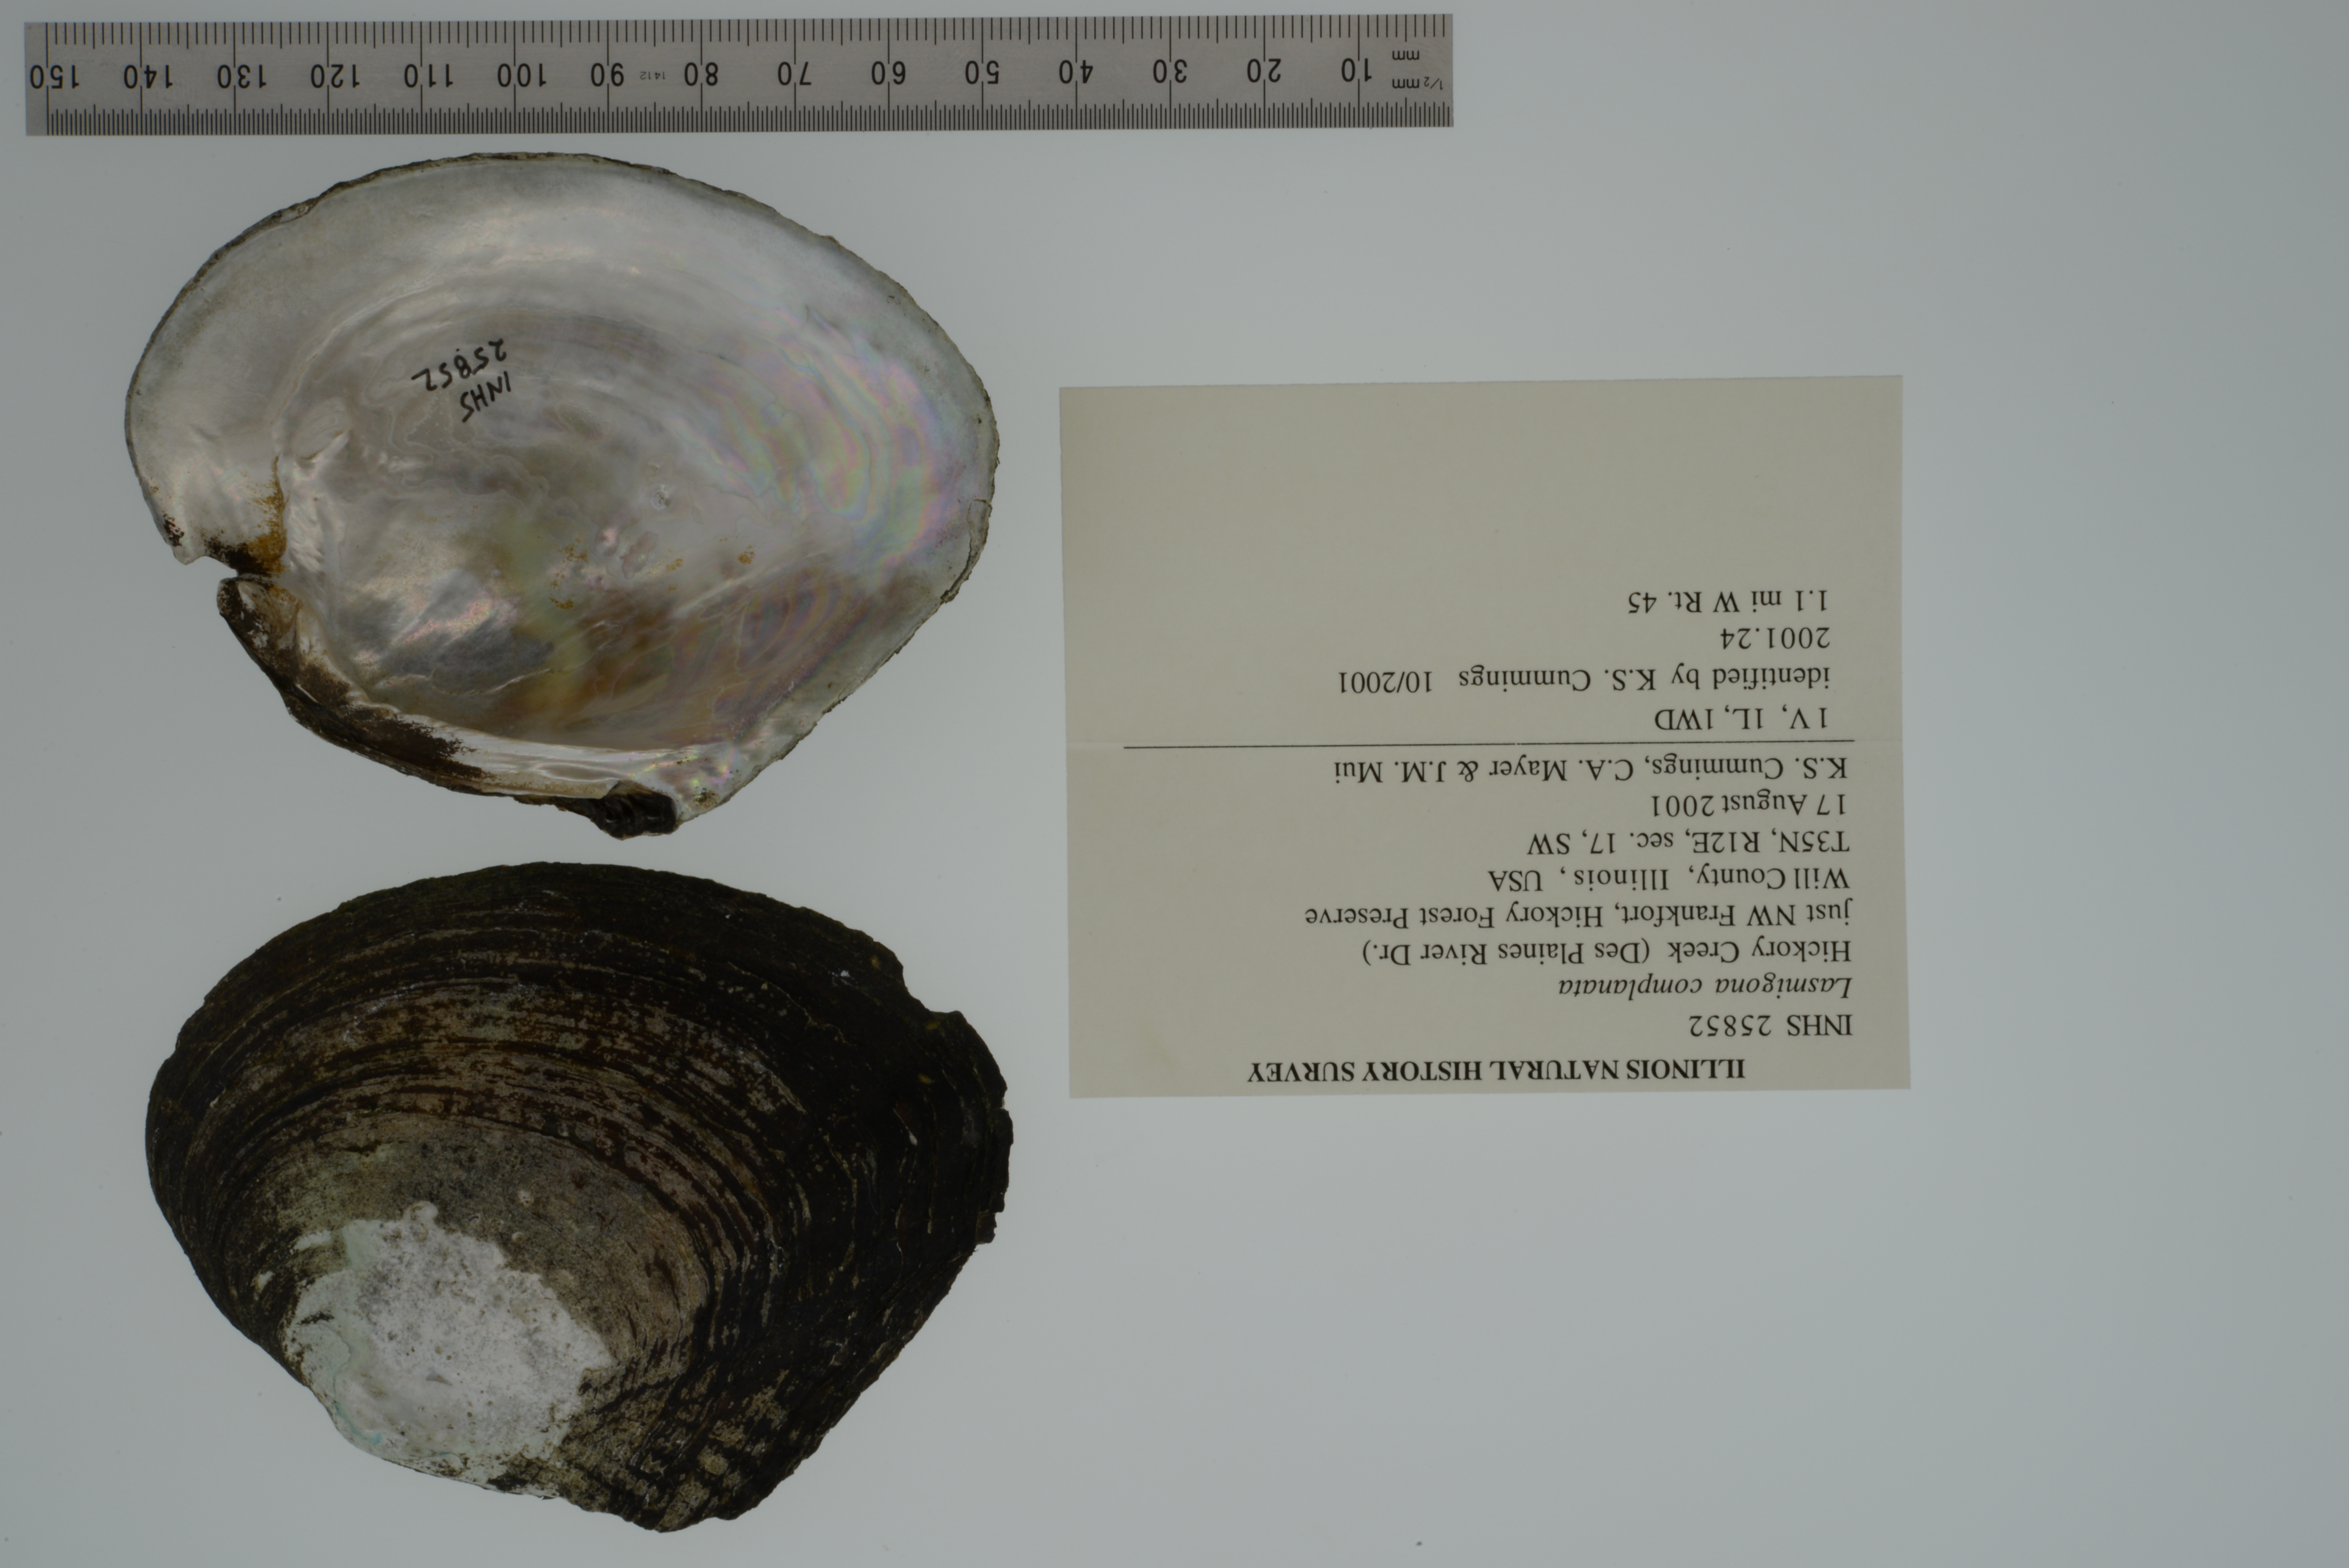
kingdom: Animalia
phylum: Mollusca
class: Bivalvia
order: Unionida
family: Unionidae
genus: Lasmigona
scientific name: Lasmigona complanata
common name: White heelsplitter
